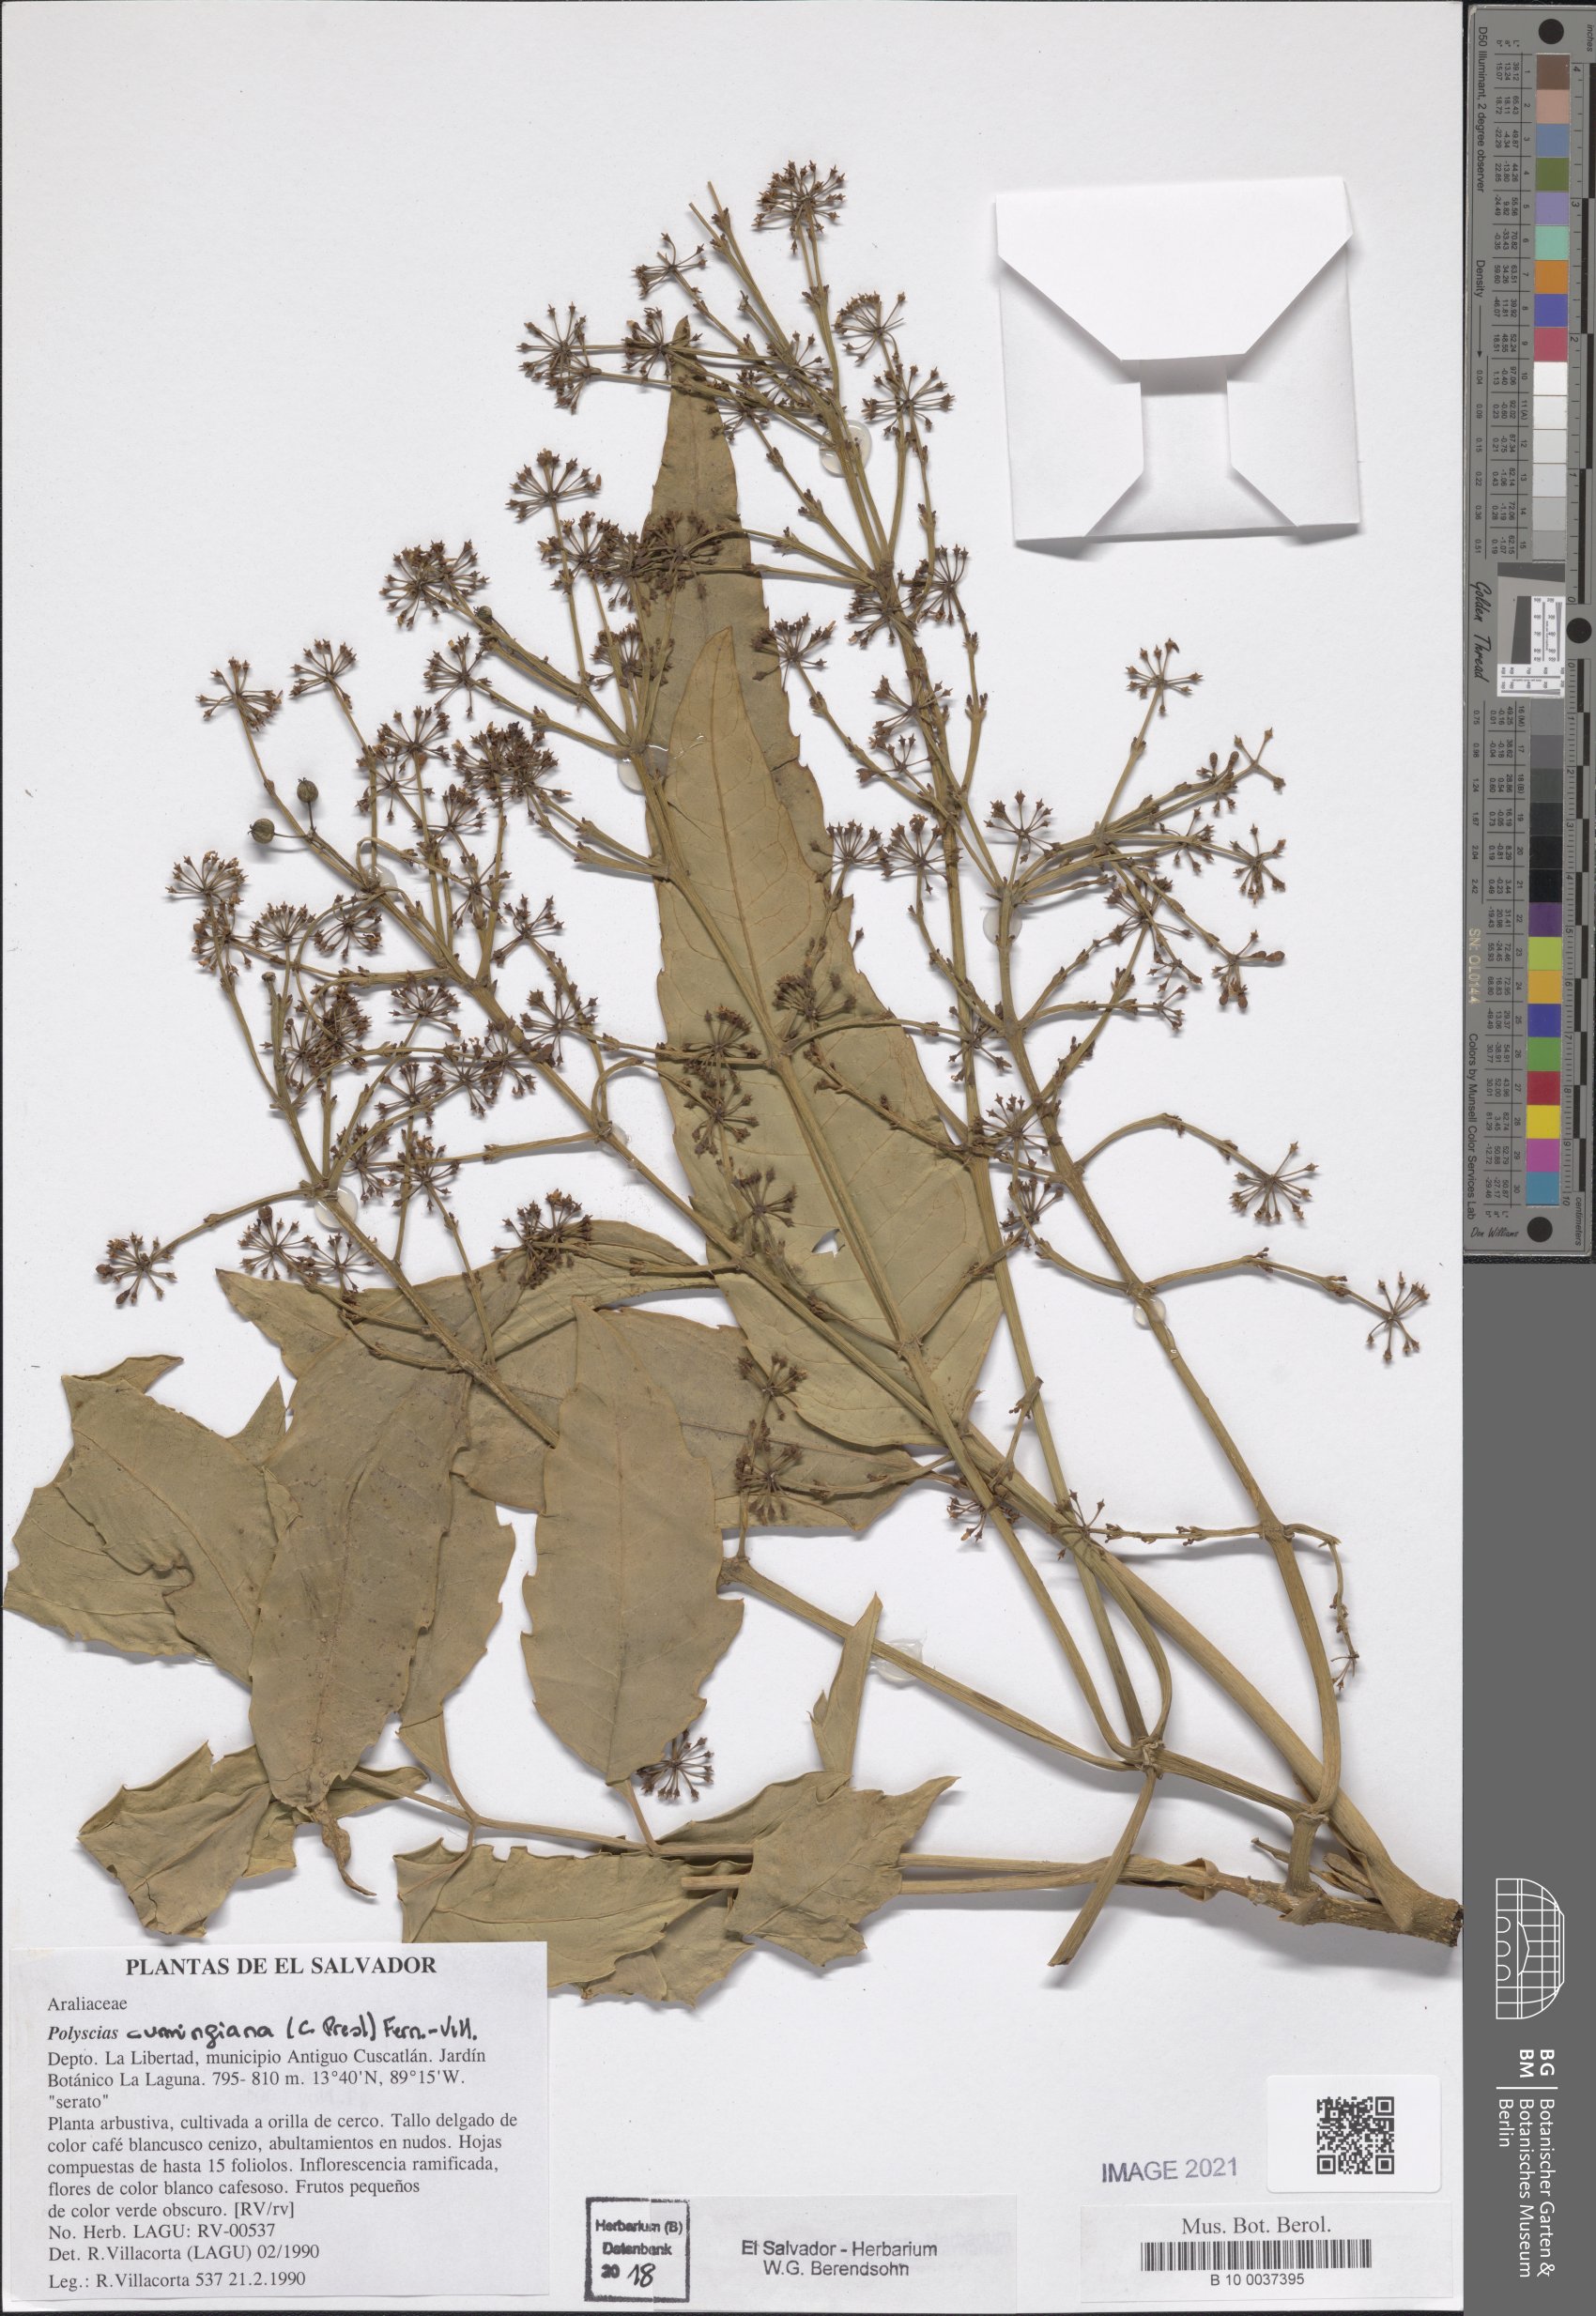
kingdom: Plantae
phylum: Tracheophyta
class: Magnoliopsida
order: Apiales
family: Araliaceae
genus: Polyscias
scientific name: Polyscias cumingiana
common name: Fern-leaf aralia
